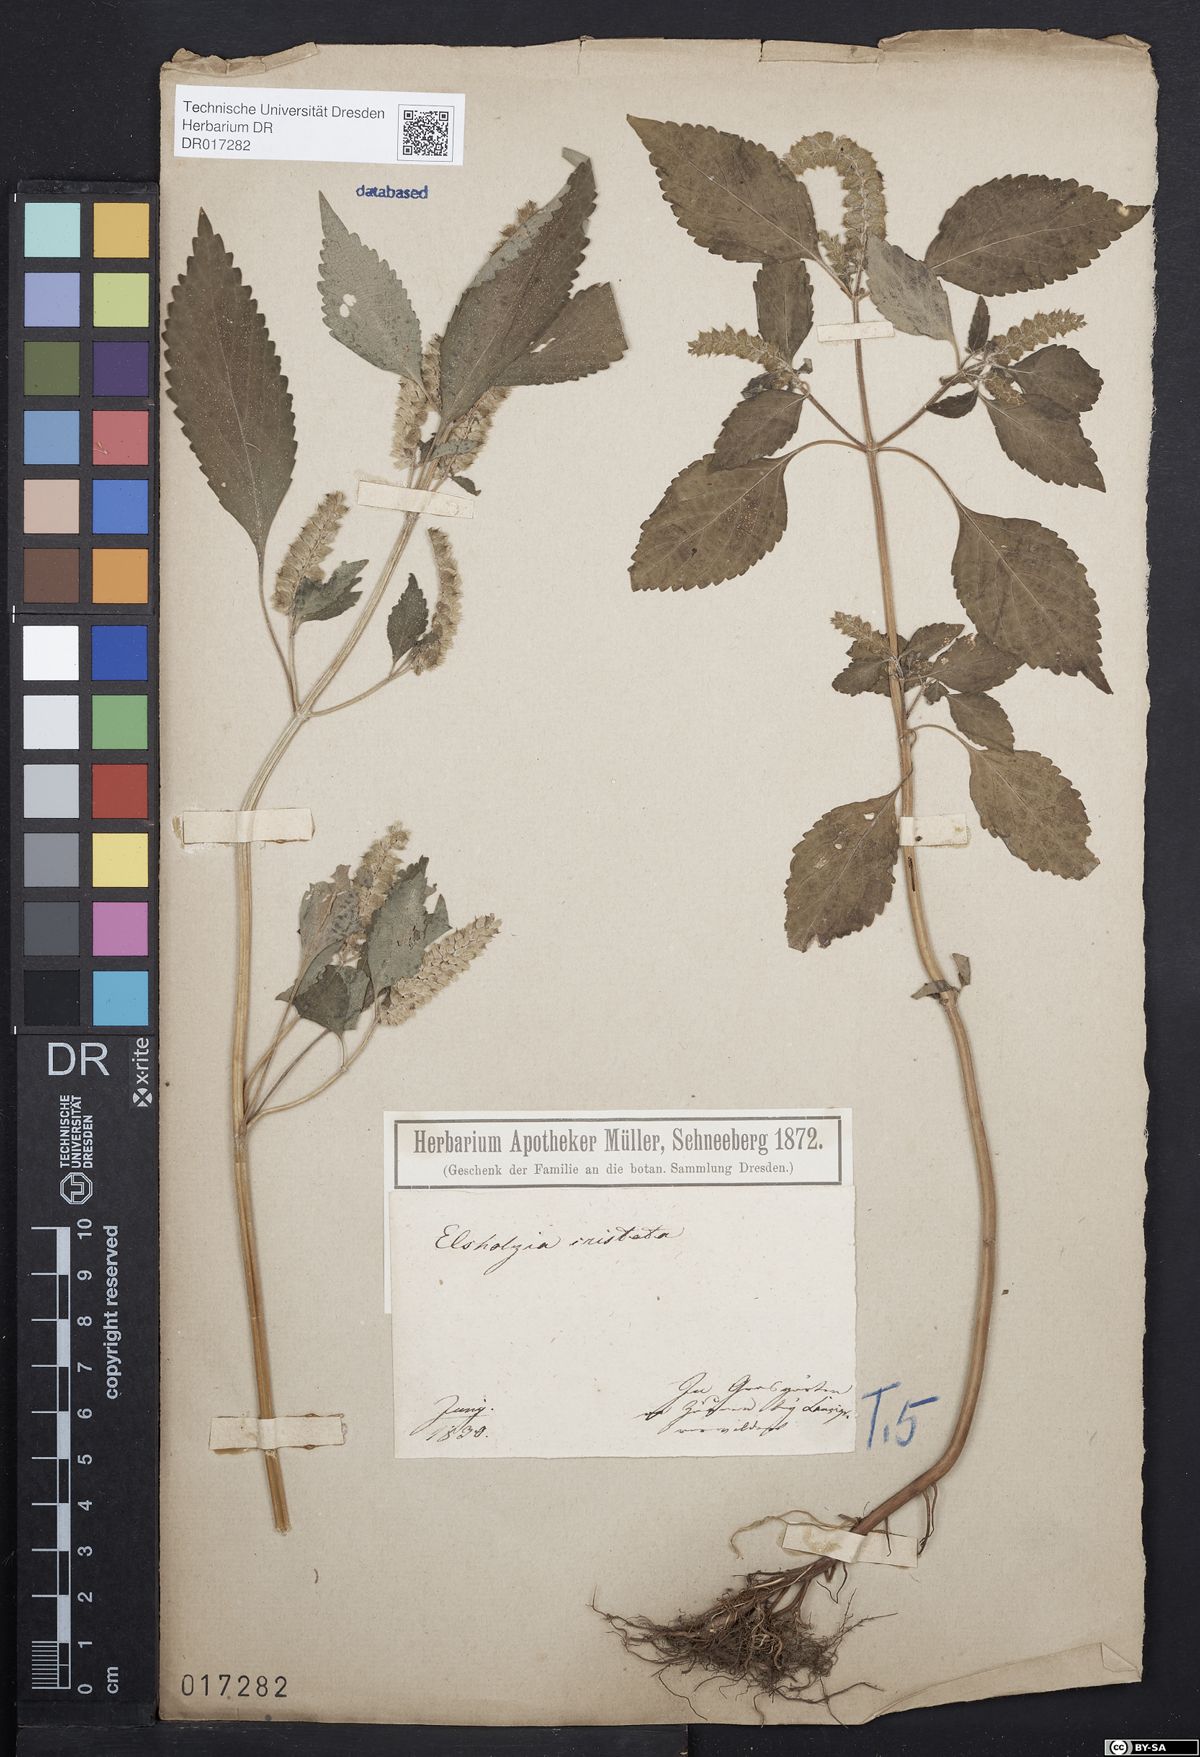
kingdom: Plantae
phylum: Tracheophyta
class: Magnoliopsida
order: Lamiales
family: Lamiaceae
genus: Elsholtzia
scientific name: Elsholtzia ciliata
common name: Ciliate elsholtzia
